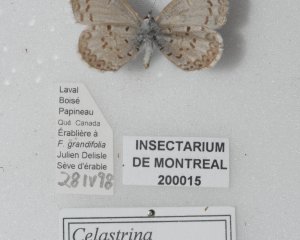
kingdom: Animalia
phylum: Arthropoda
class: Insecta
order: Lepidoptera
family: Lycaenidae
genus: Celastrina
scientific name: Celastrina lucia
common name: Northern Spring Azure
